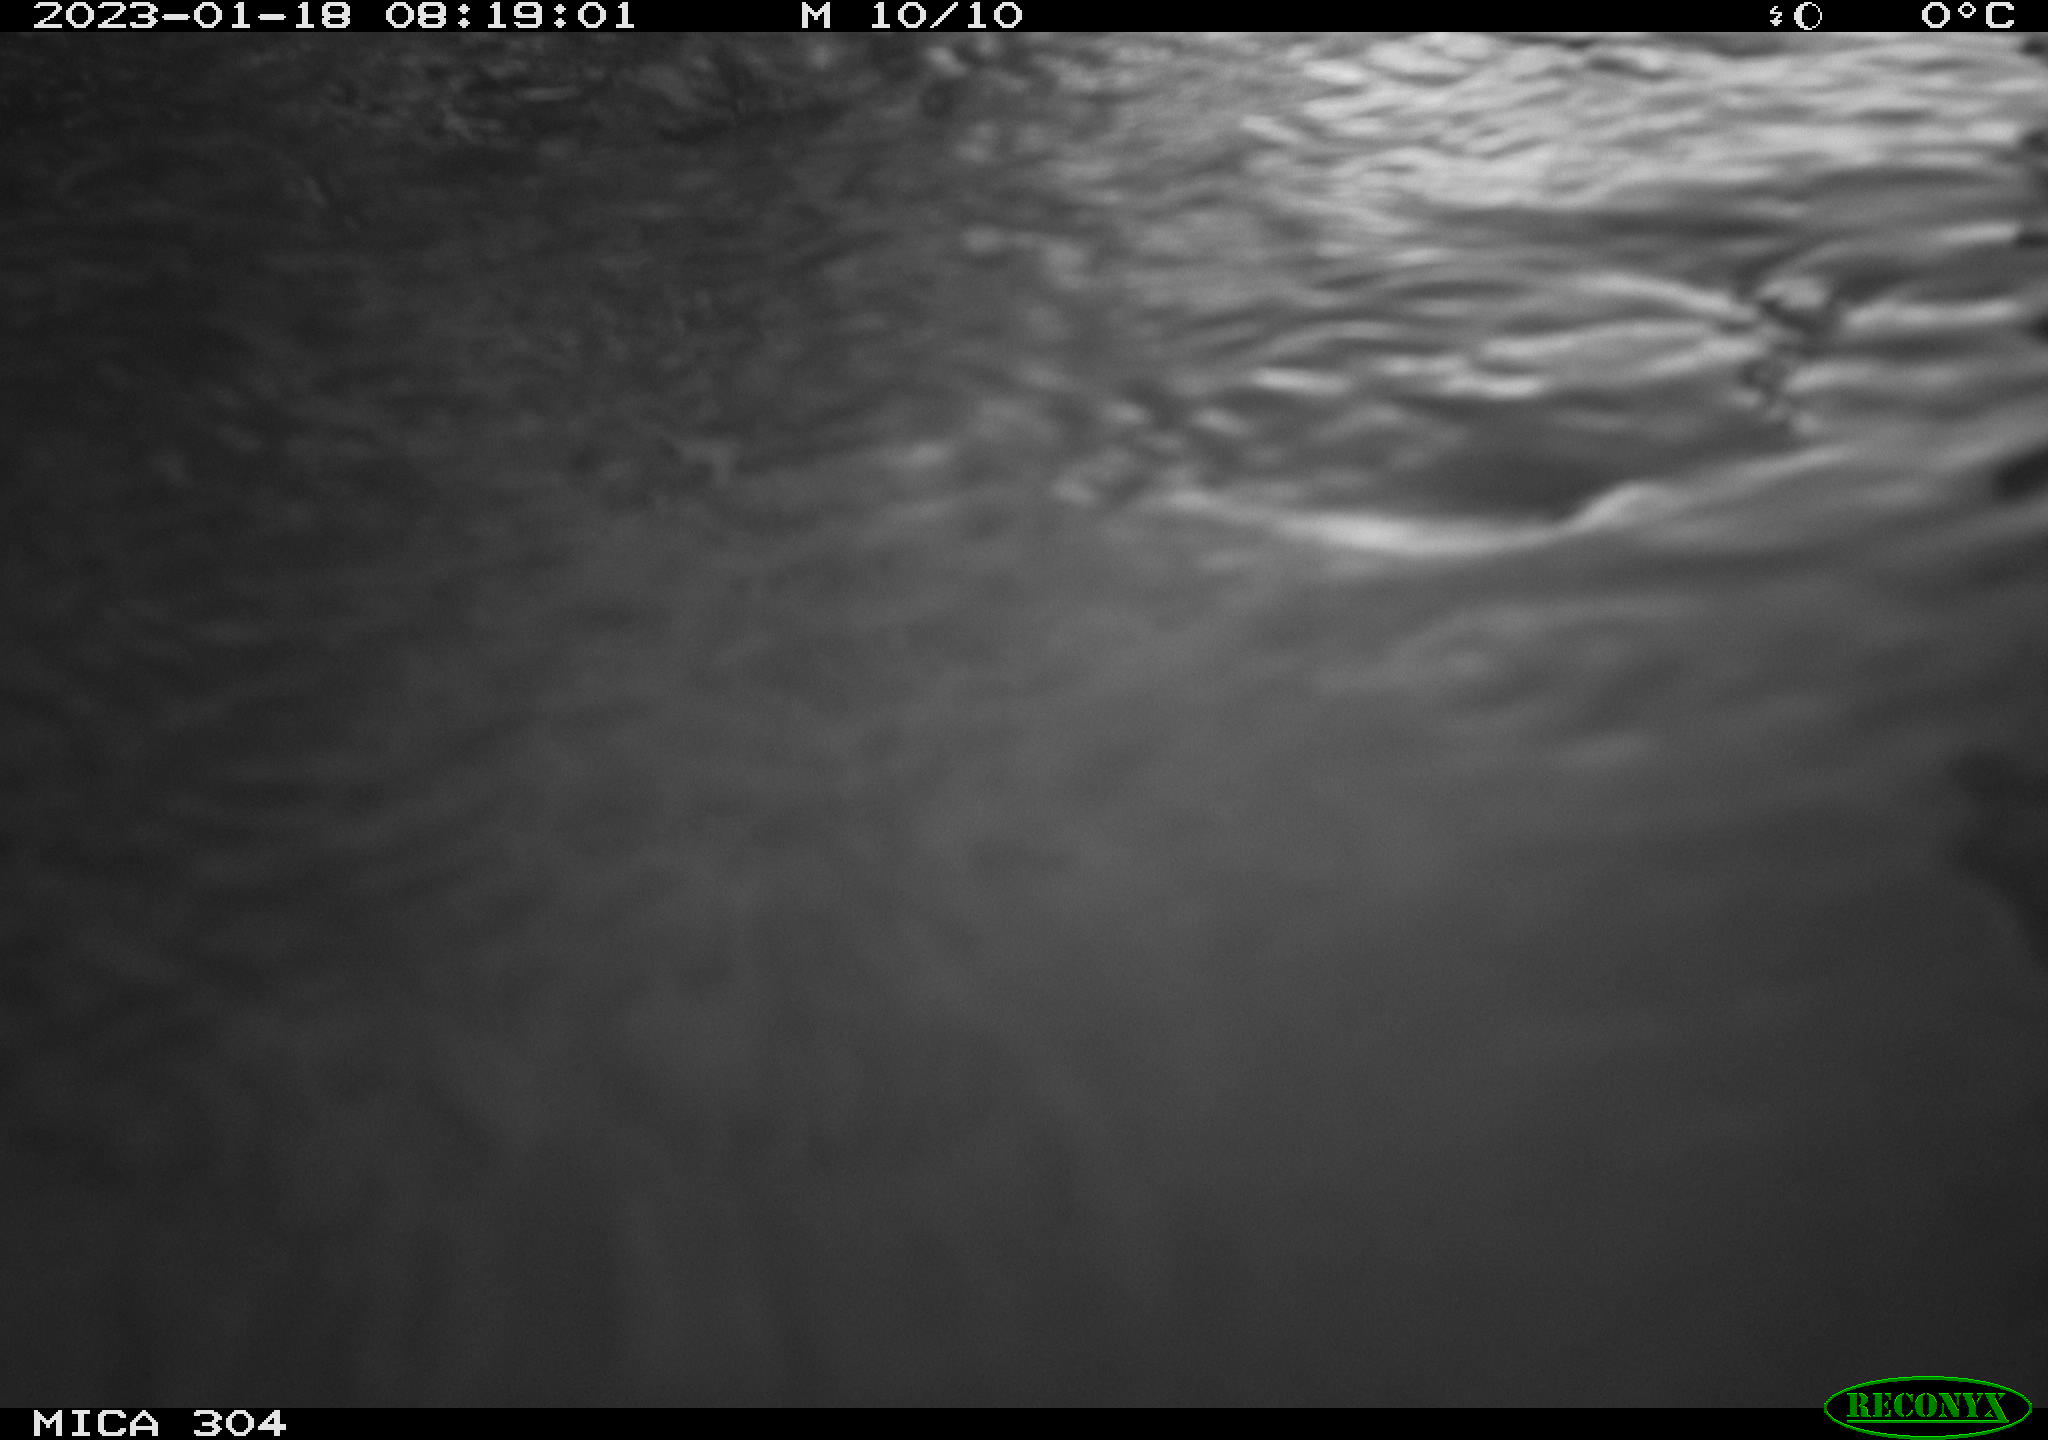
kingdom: Animalia
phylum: Chordata
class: Mammalia
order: Rodentia
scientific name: Rodentia
